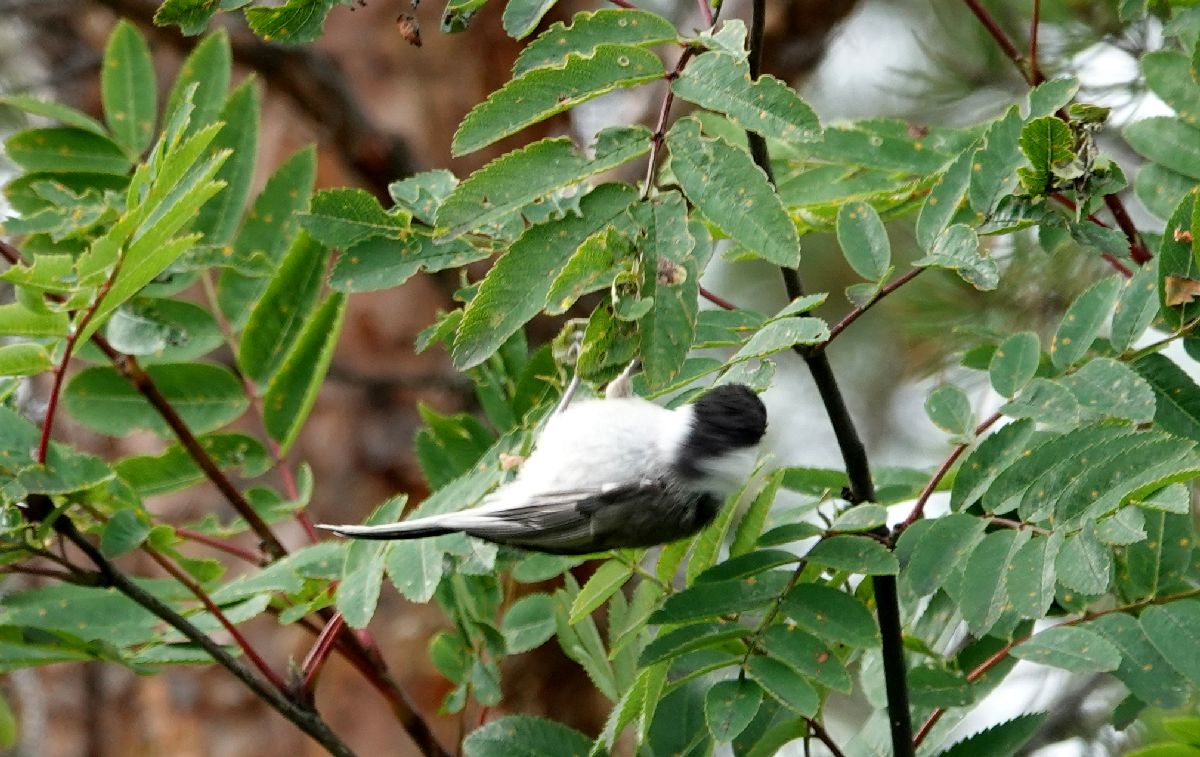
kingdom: Animalia
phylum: Chordata
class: Aves
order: Passeriformes
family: Paridae
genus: Poecile
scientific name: Poecile montanus
